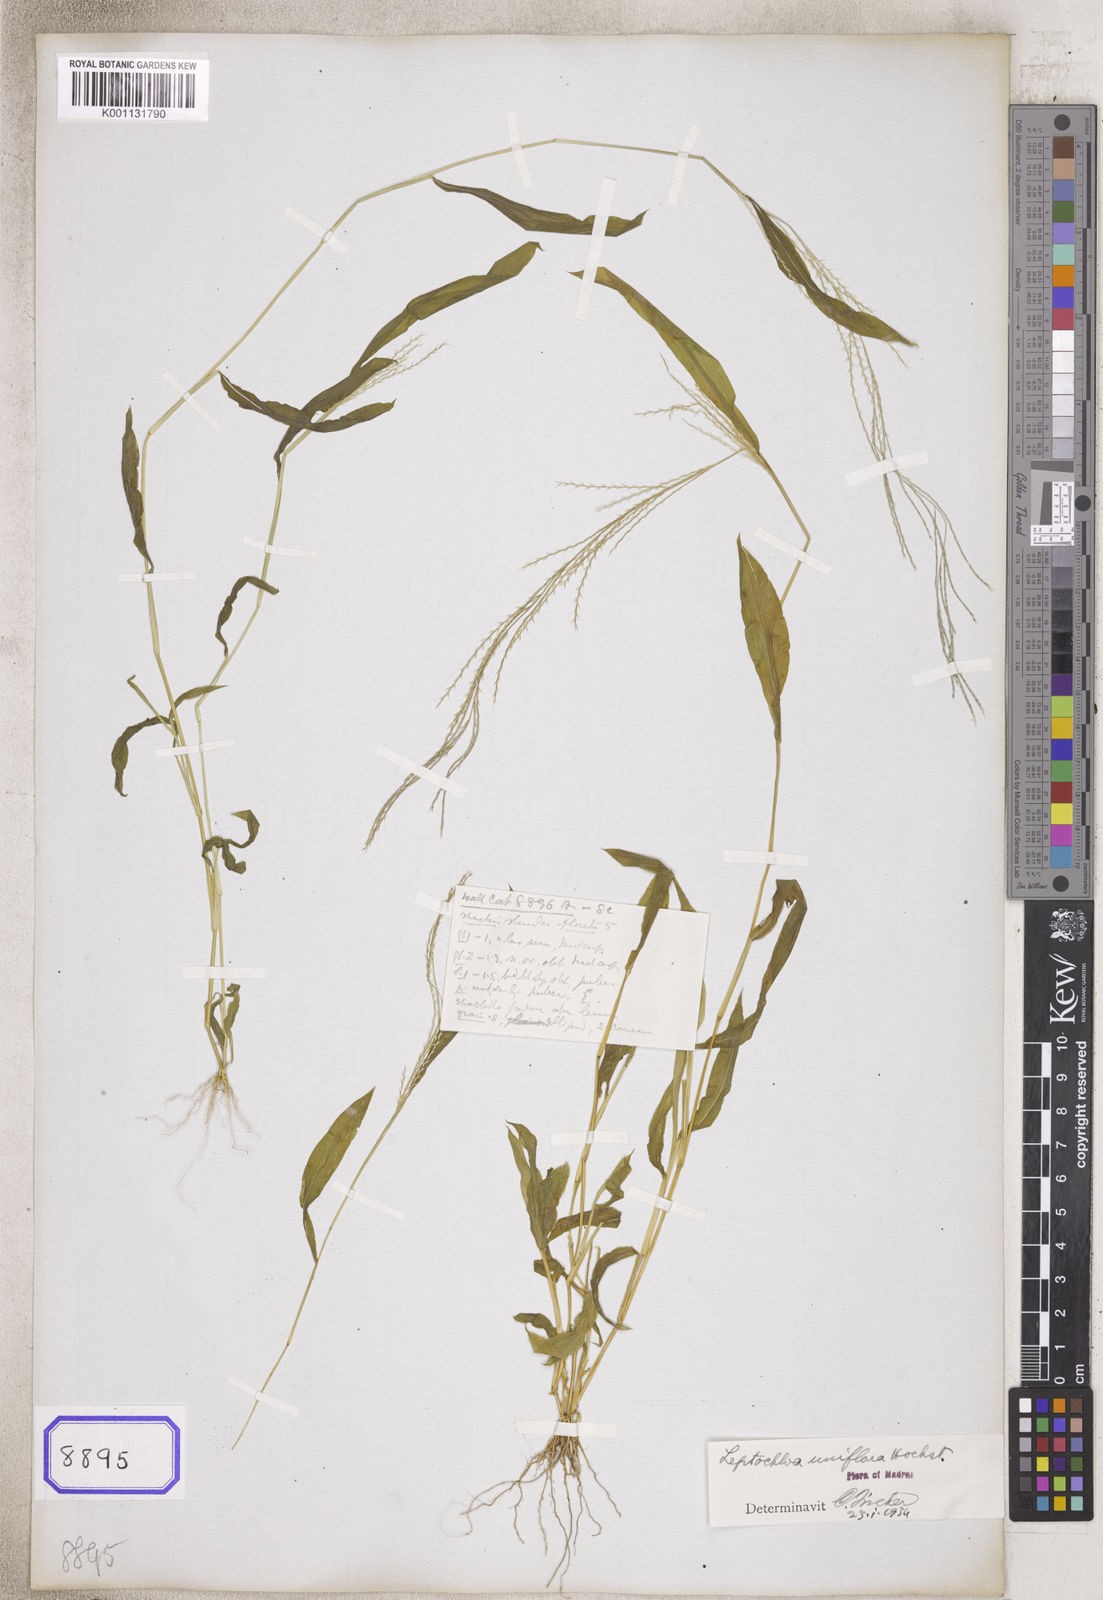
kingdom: Plantae
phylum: Tracheophyta
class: Liliopsida
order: Poales
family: Poaceae
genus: Leptochloa
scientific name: Leptochloa
